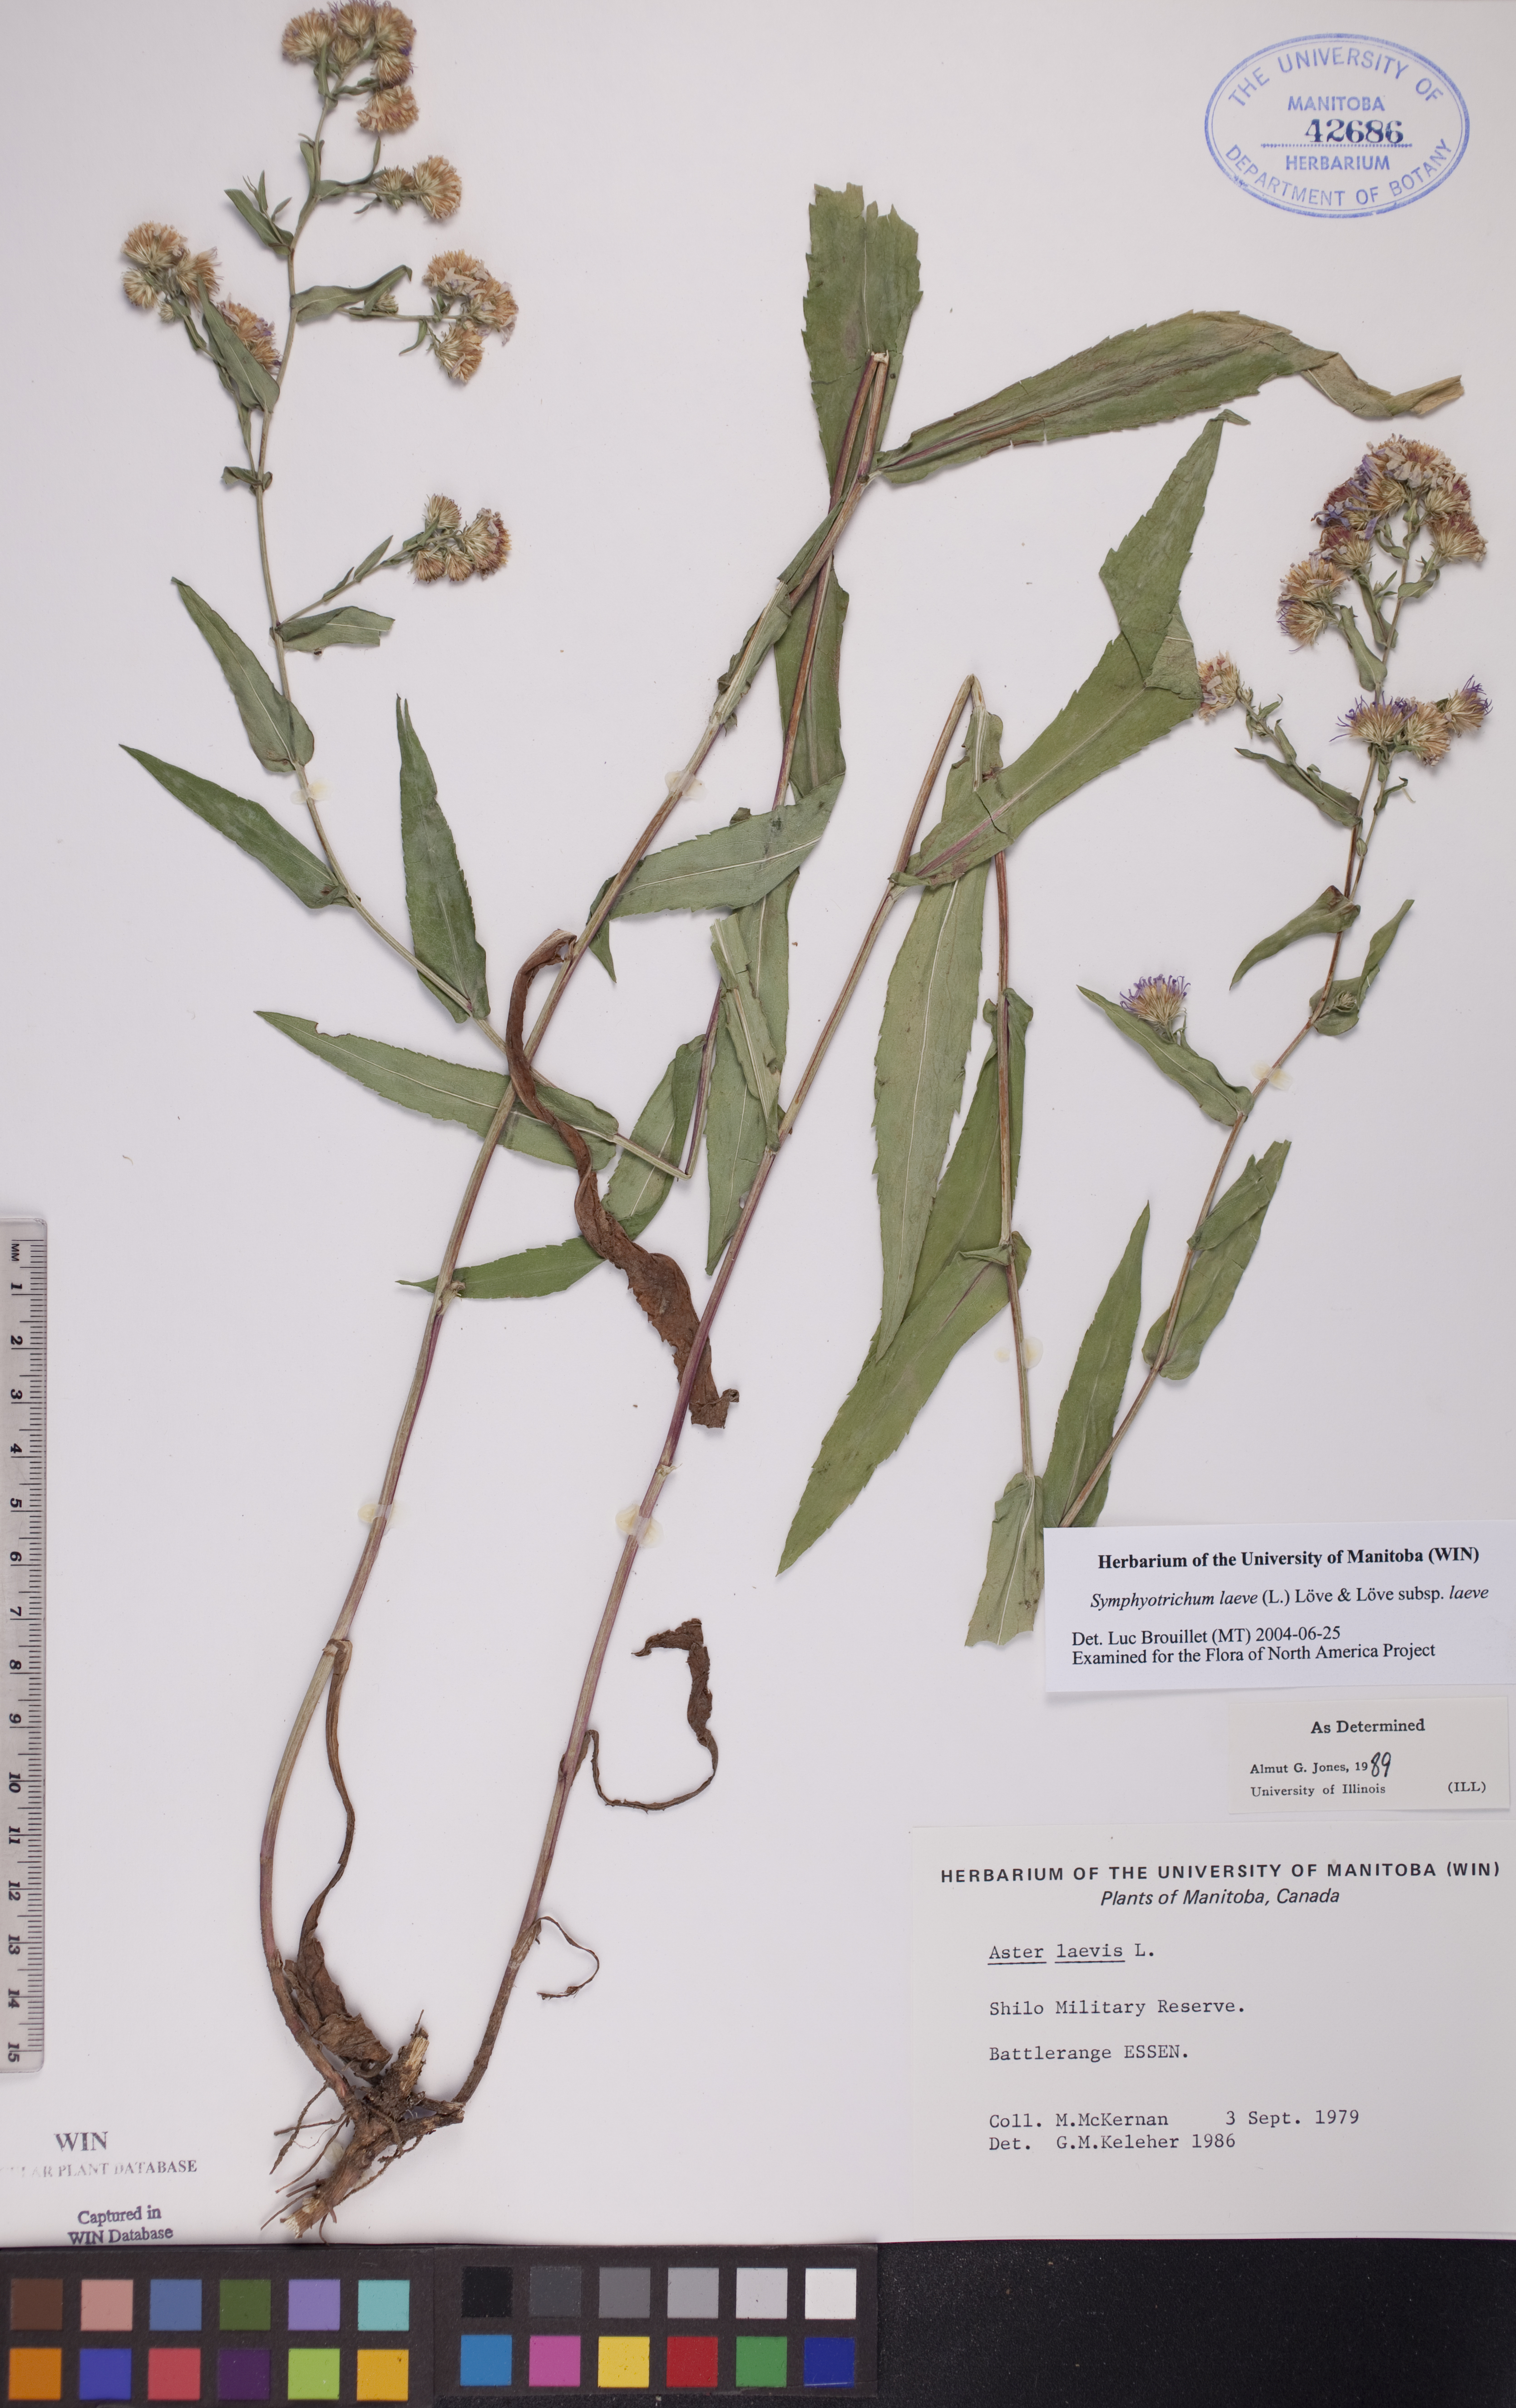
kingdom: Plantae
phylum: Tracheophyta
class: Magnoliopsida
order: Asterales
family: Asteraceae
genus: Symphyotrichum
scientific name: Symphyotrichum laeve
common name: Glaucous aster
